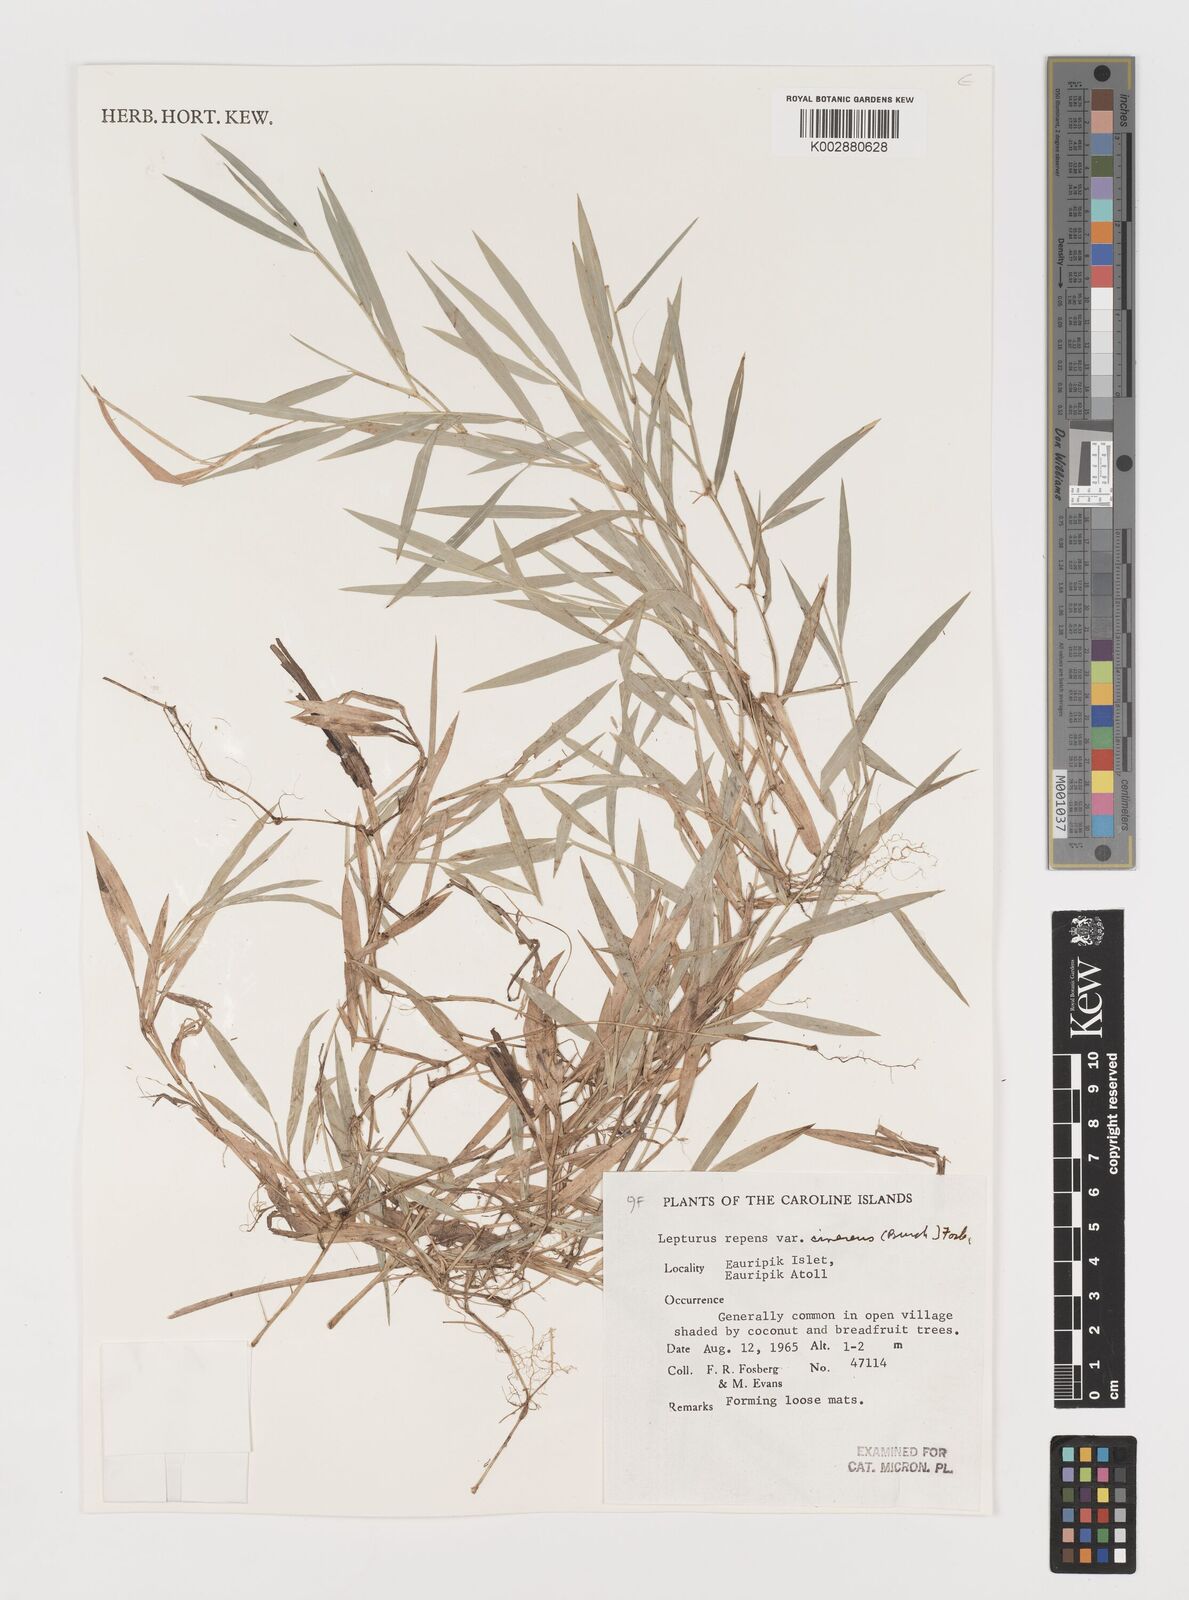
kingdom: Plantae
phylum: Tracheophyta
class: Liliopsida
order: Poales
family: Poaceae
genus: Lepturus
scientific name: Lepturus repens
